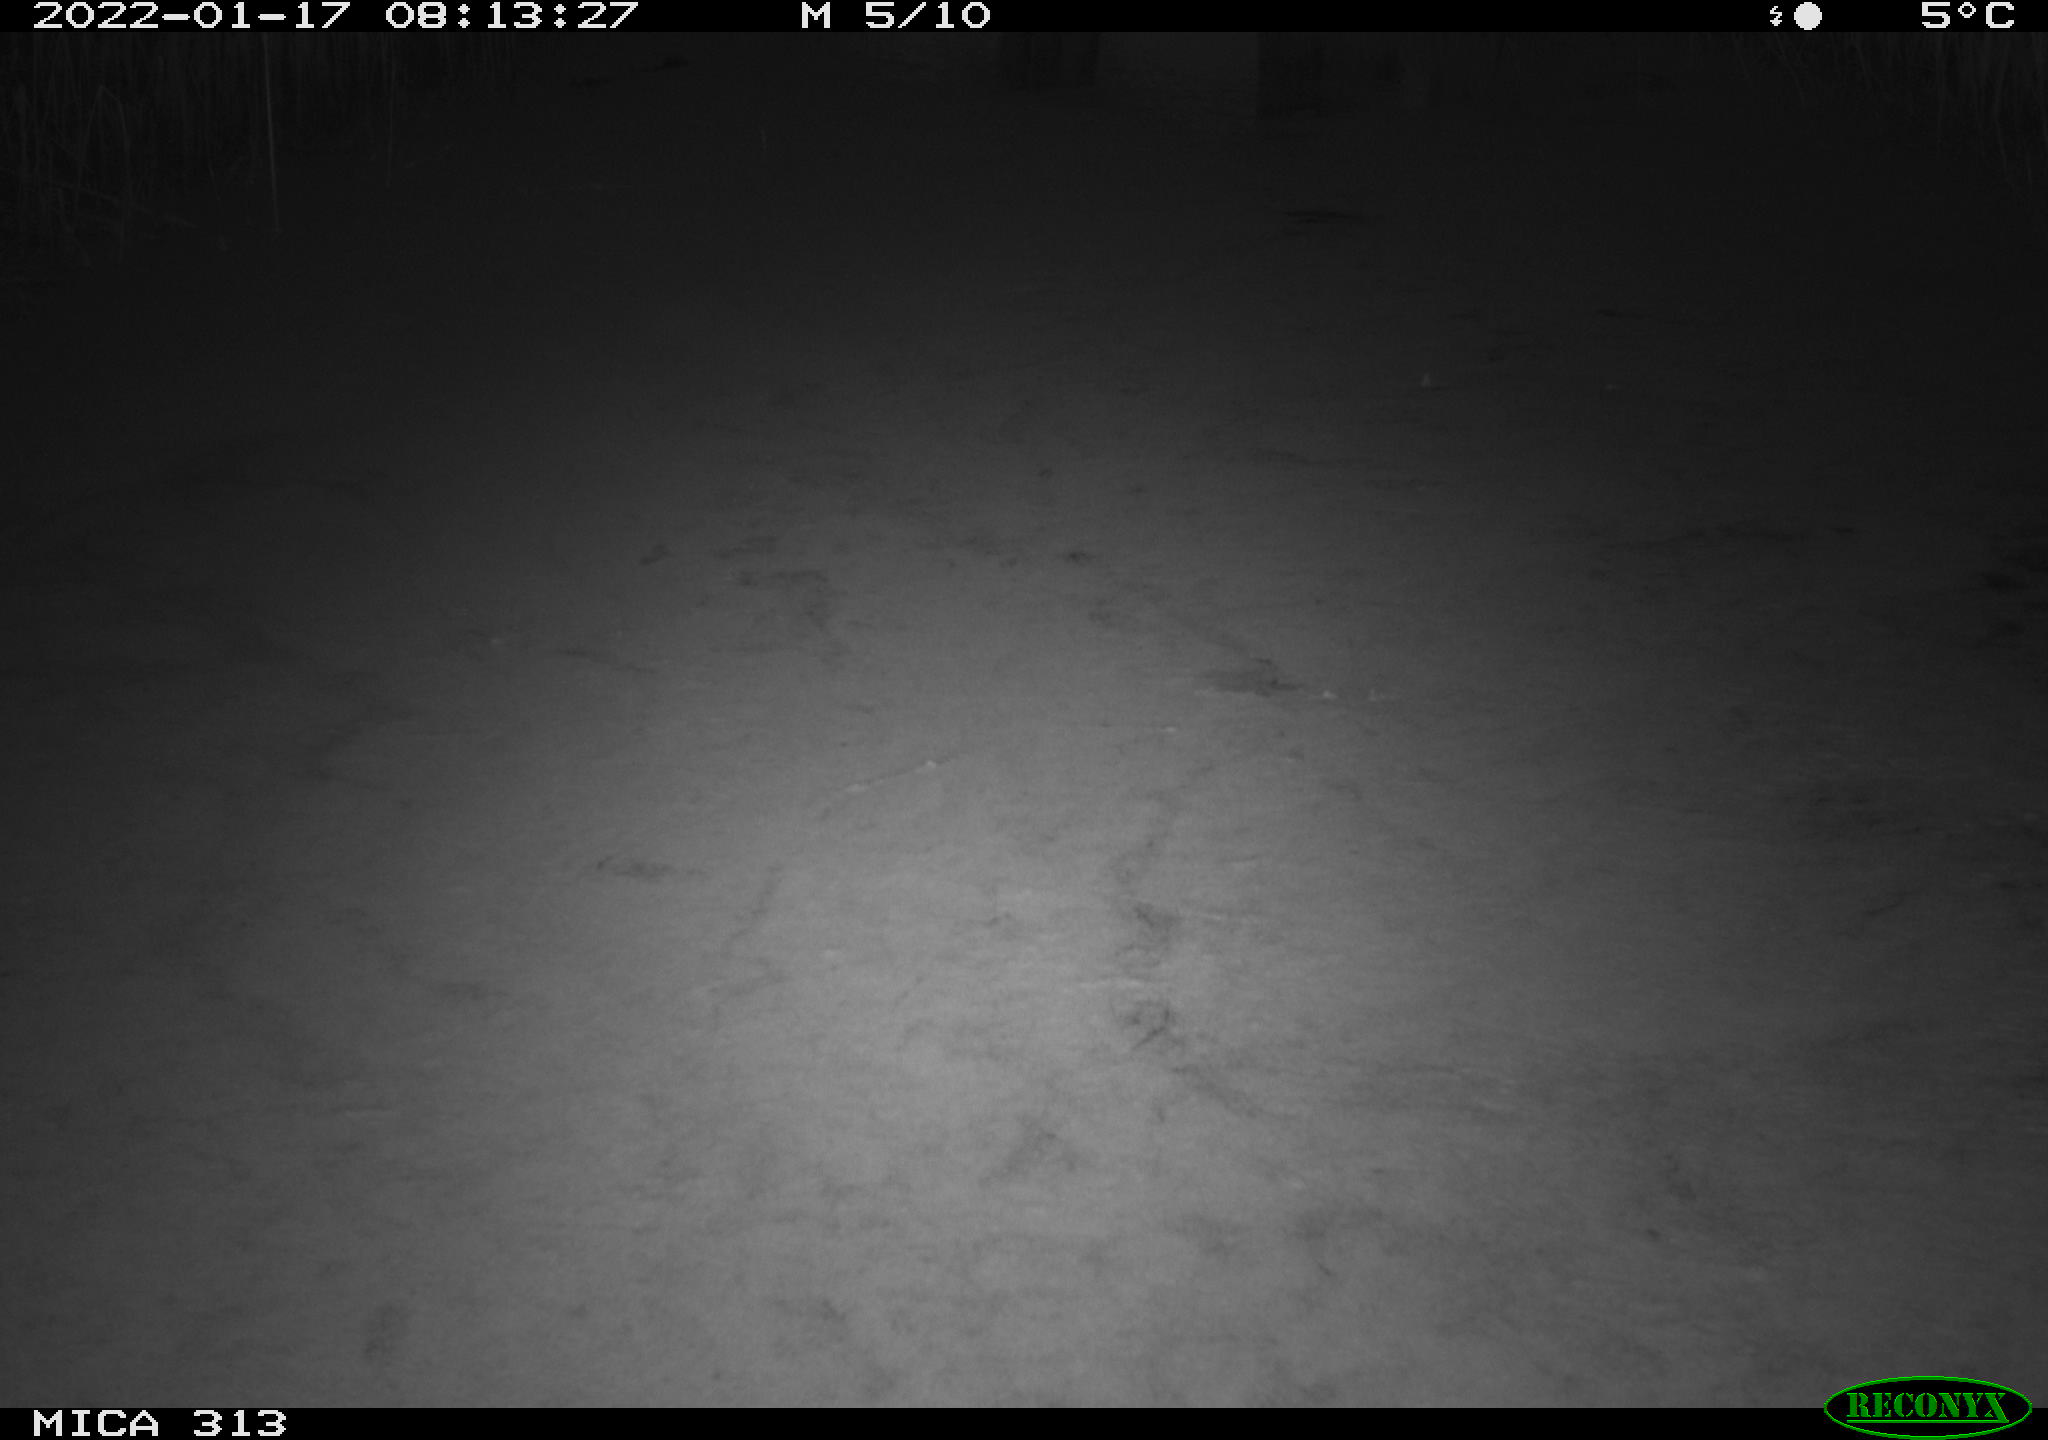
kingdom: Animalia
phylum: Chordata
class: Aves
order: Gruiformes
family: Rallidae
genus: Gallinula
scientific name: Gallinula chloropus
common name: Common moorhen
